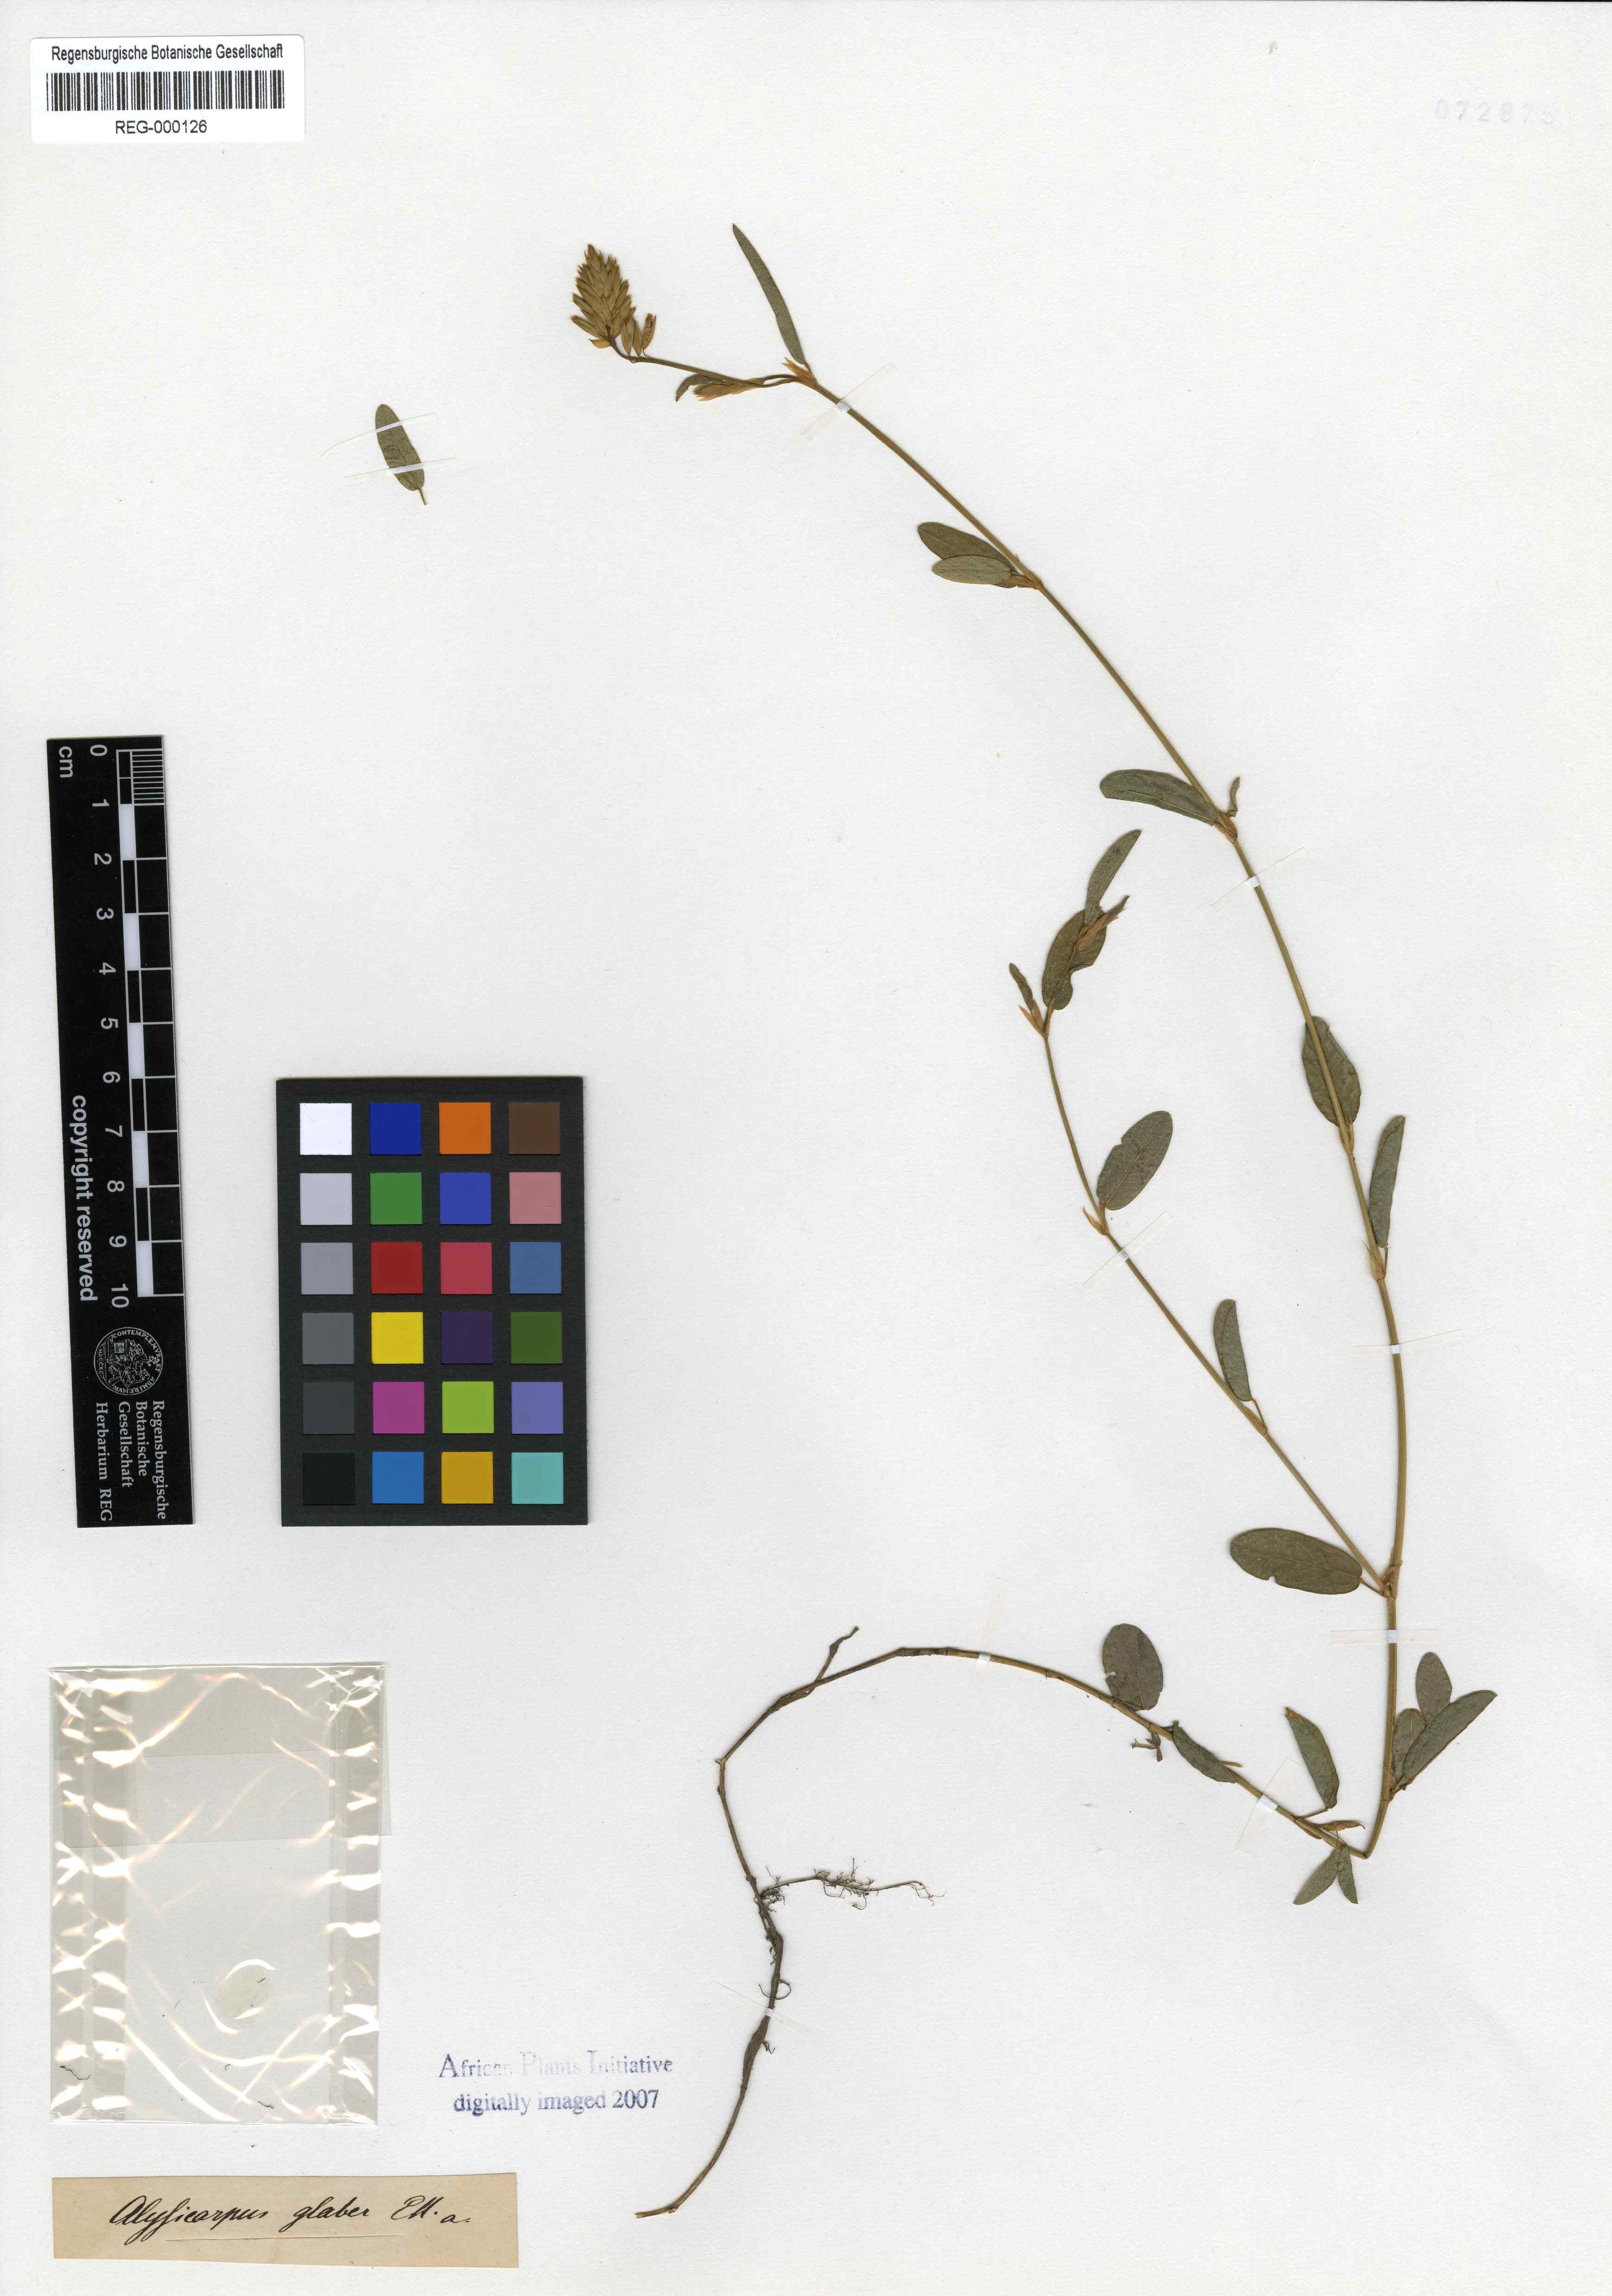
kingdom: Plantae
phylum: Tracheophyta
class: Magnoliopsida
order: Fabales
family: Fabaceae
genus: Alysicarpus
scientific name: Alysicarpus rugosus
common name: Red moneywort
